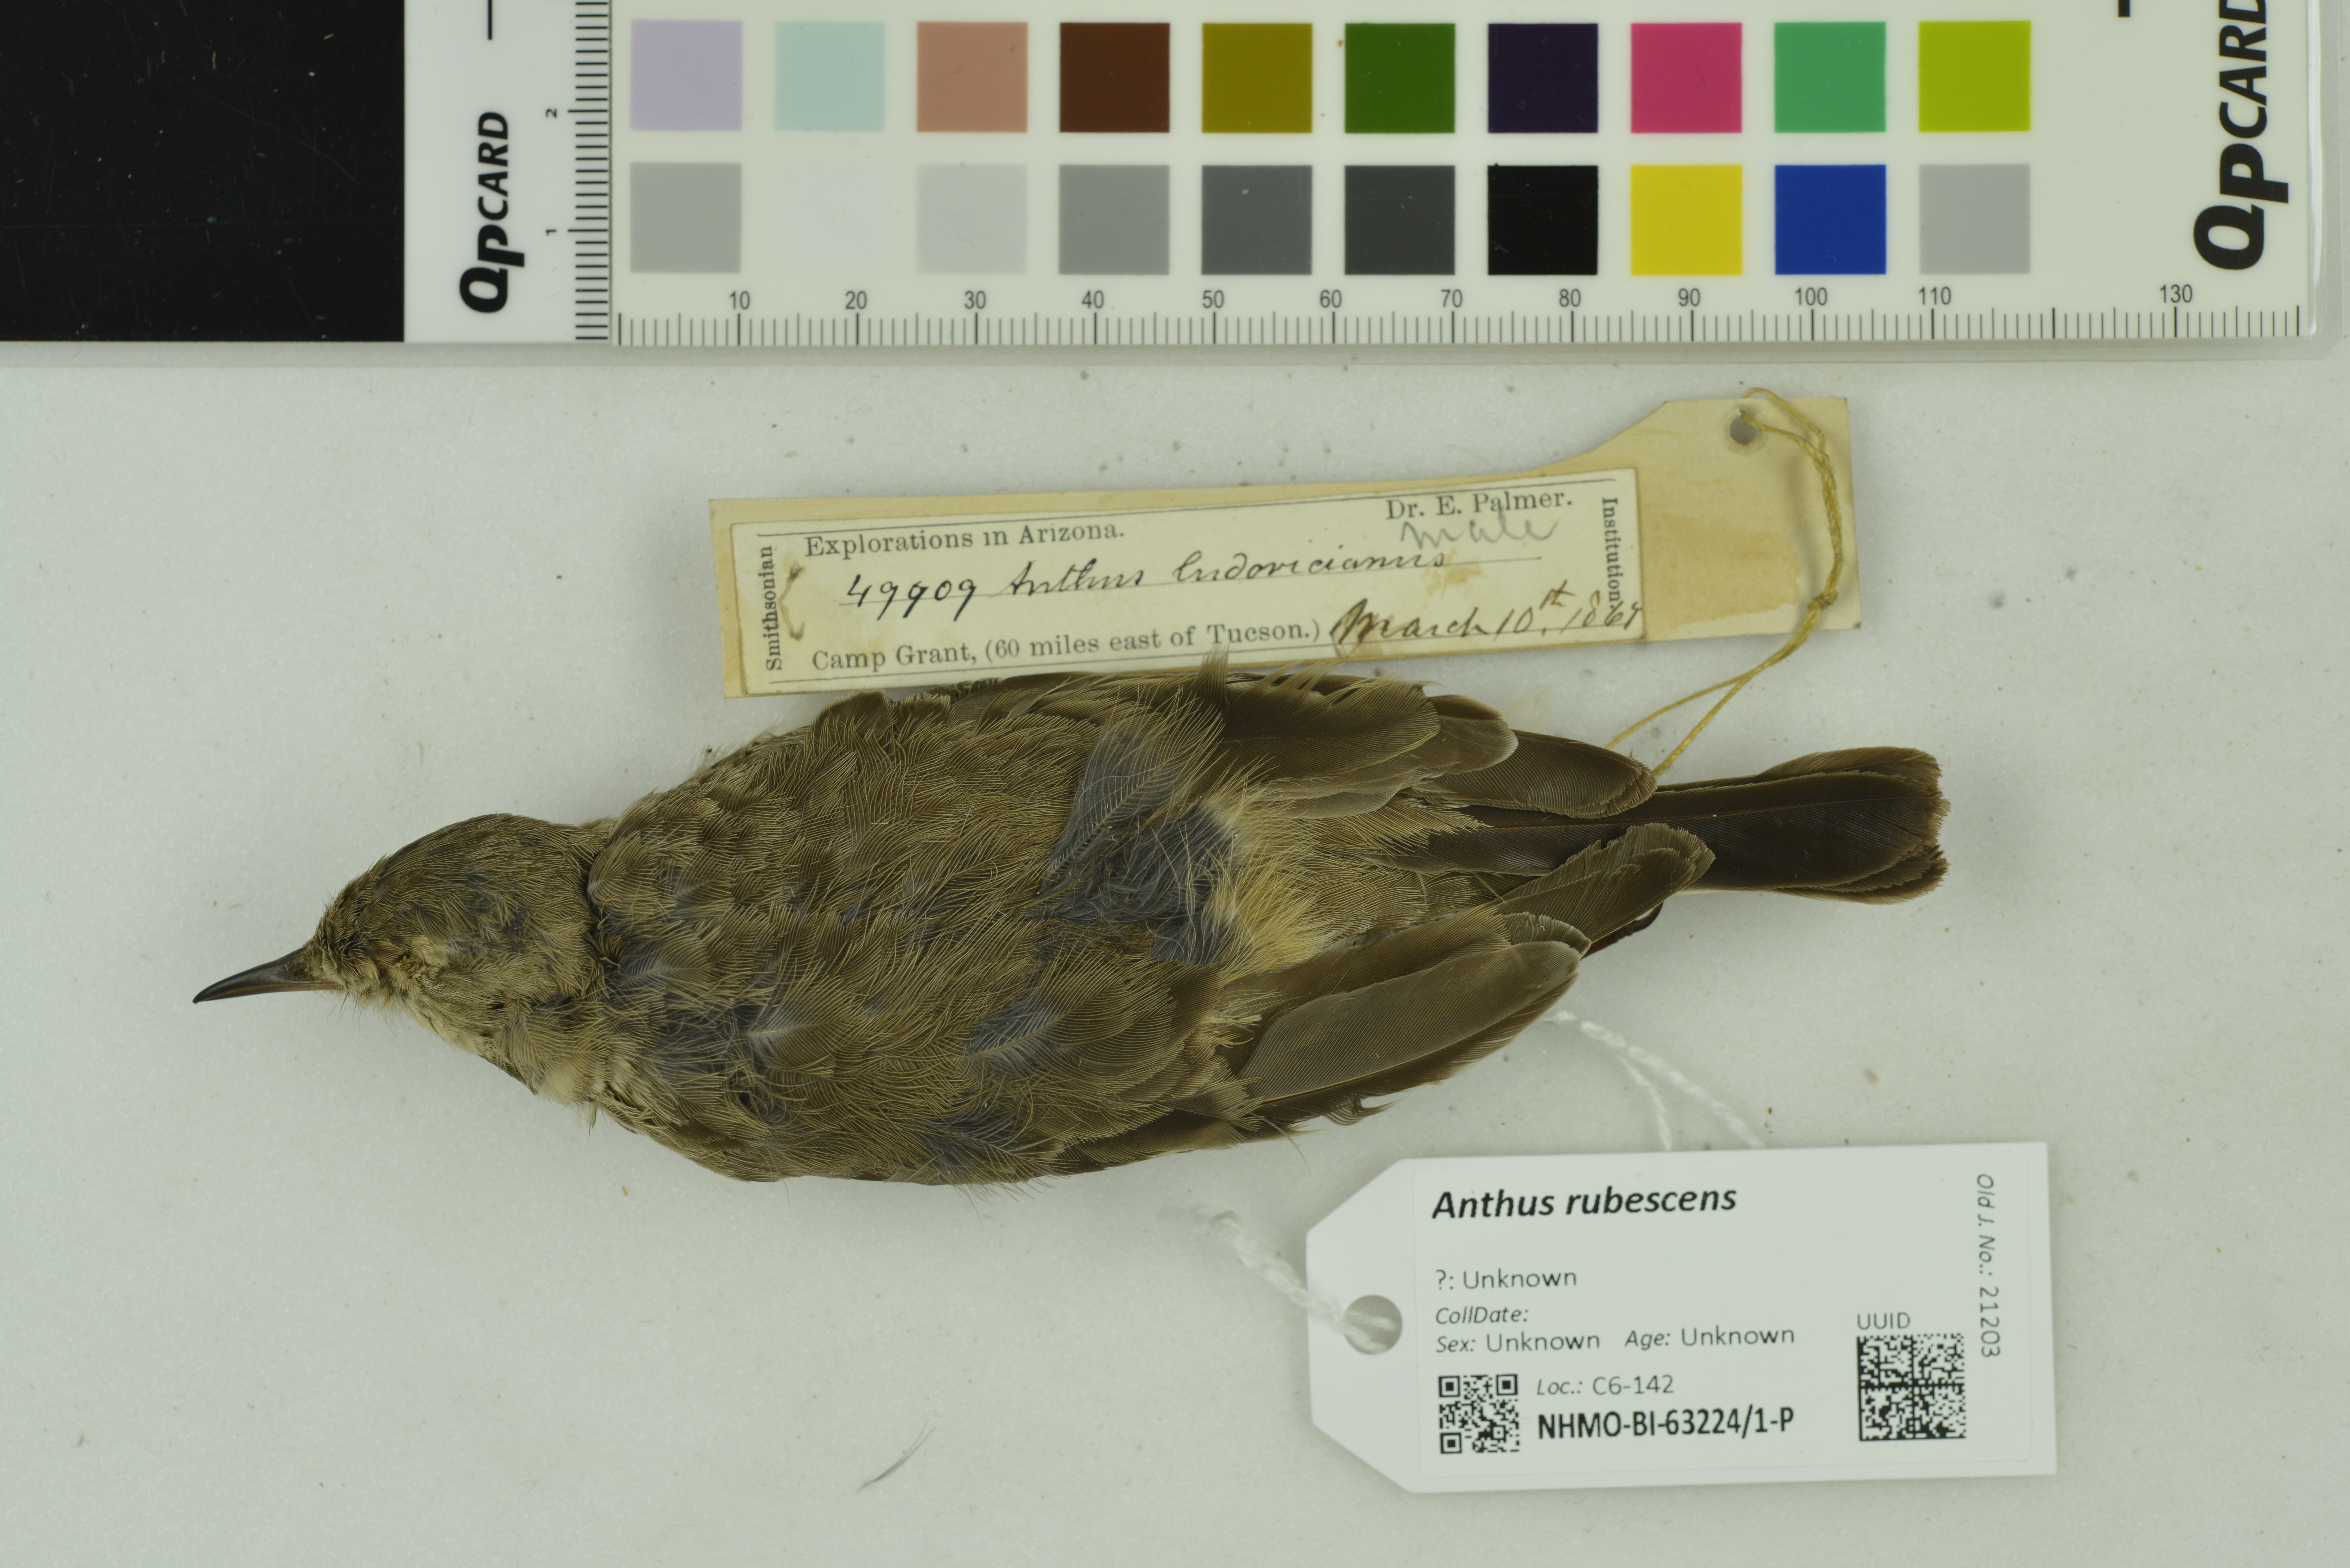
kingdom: Animalia
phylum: Chordata
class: Aves
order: Passeriformes
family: Motacillidae
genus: Anthus
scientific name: Anthus rubescens
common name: Buff-bellied pipit
